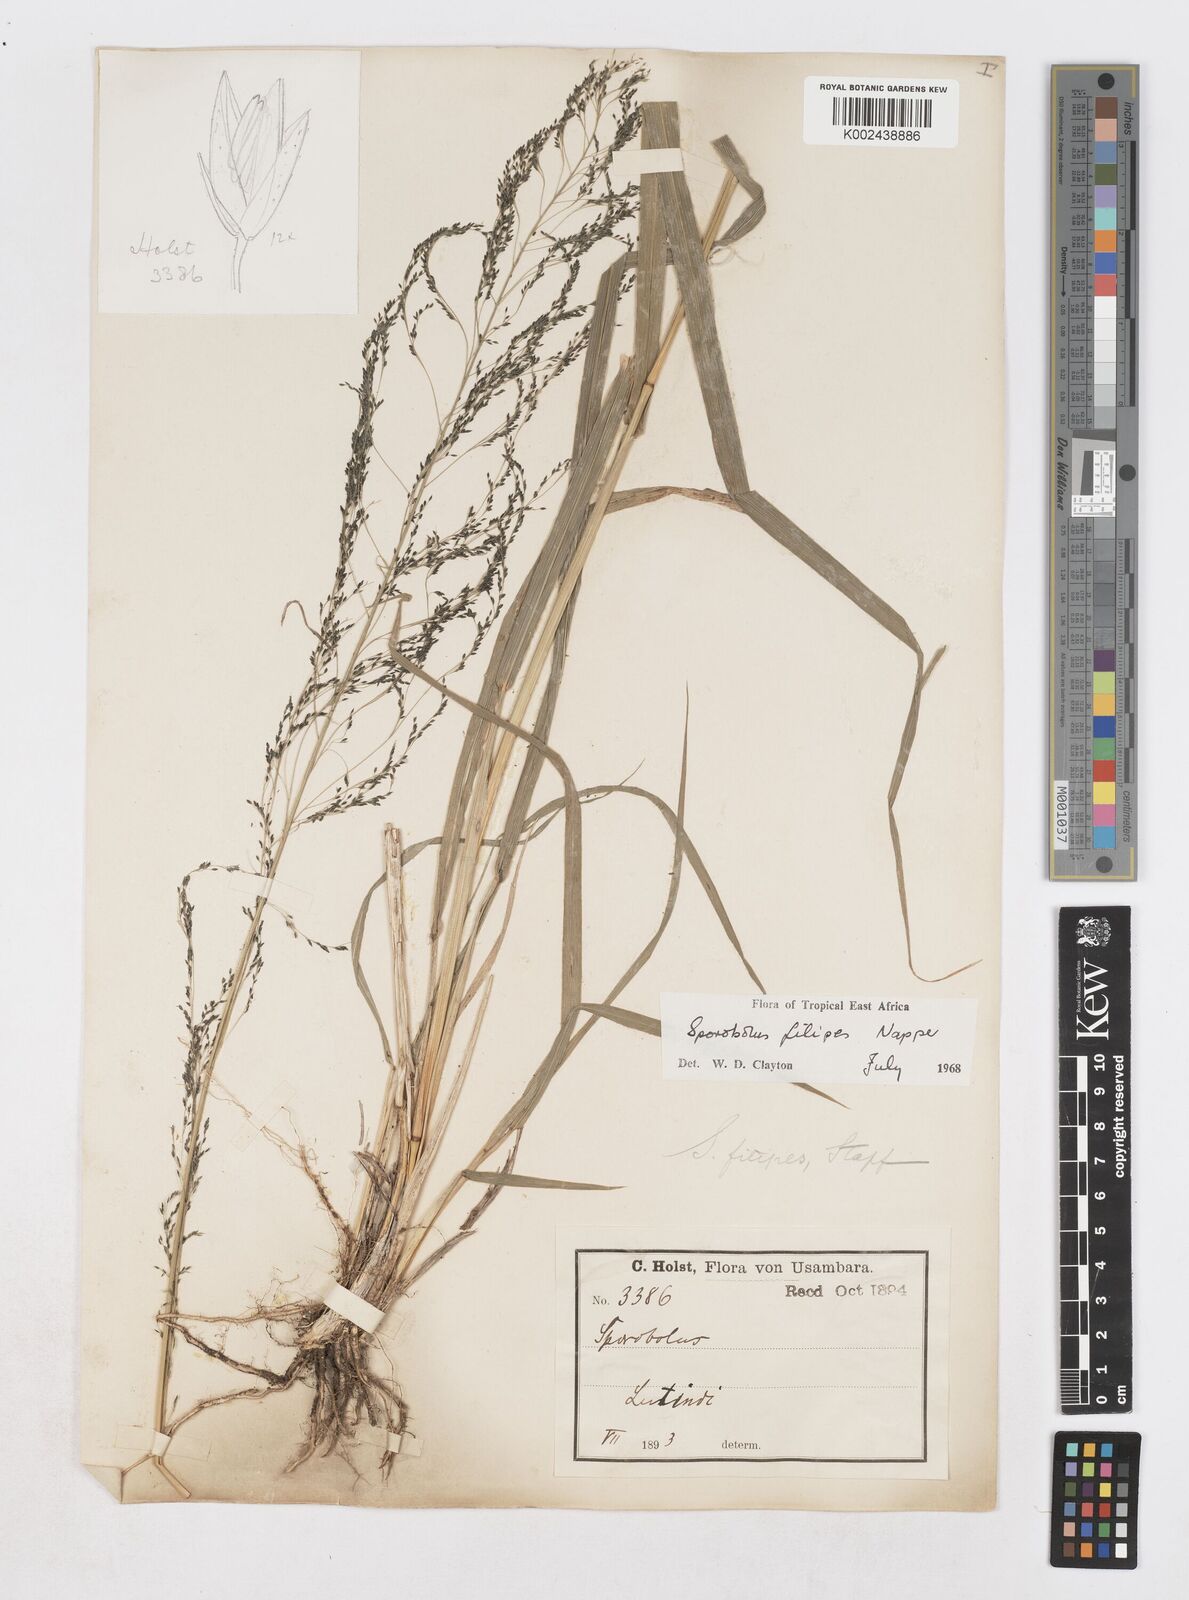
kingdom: Plantae
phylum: Tracheophyta
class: Liliopsida
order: Poales
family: Poaceae
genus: Sporobolus
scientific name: Sporobolus agrostoides
